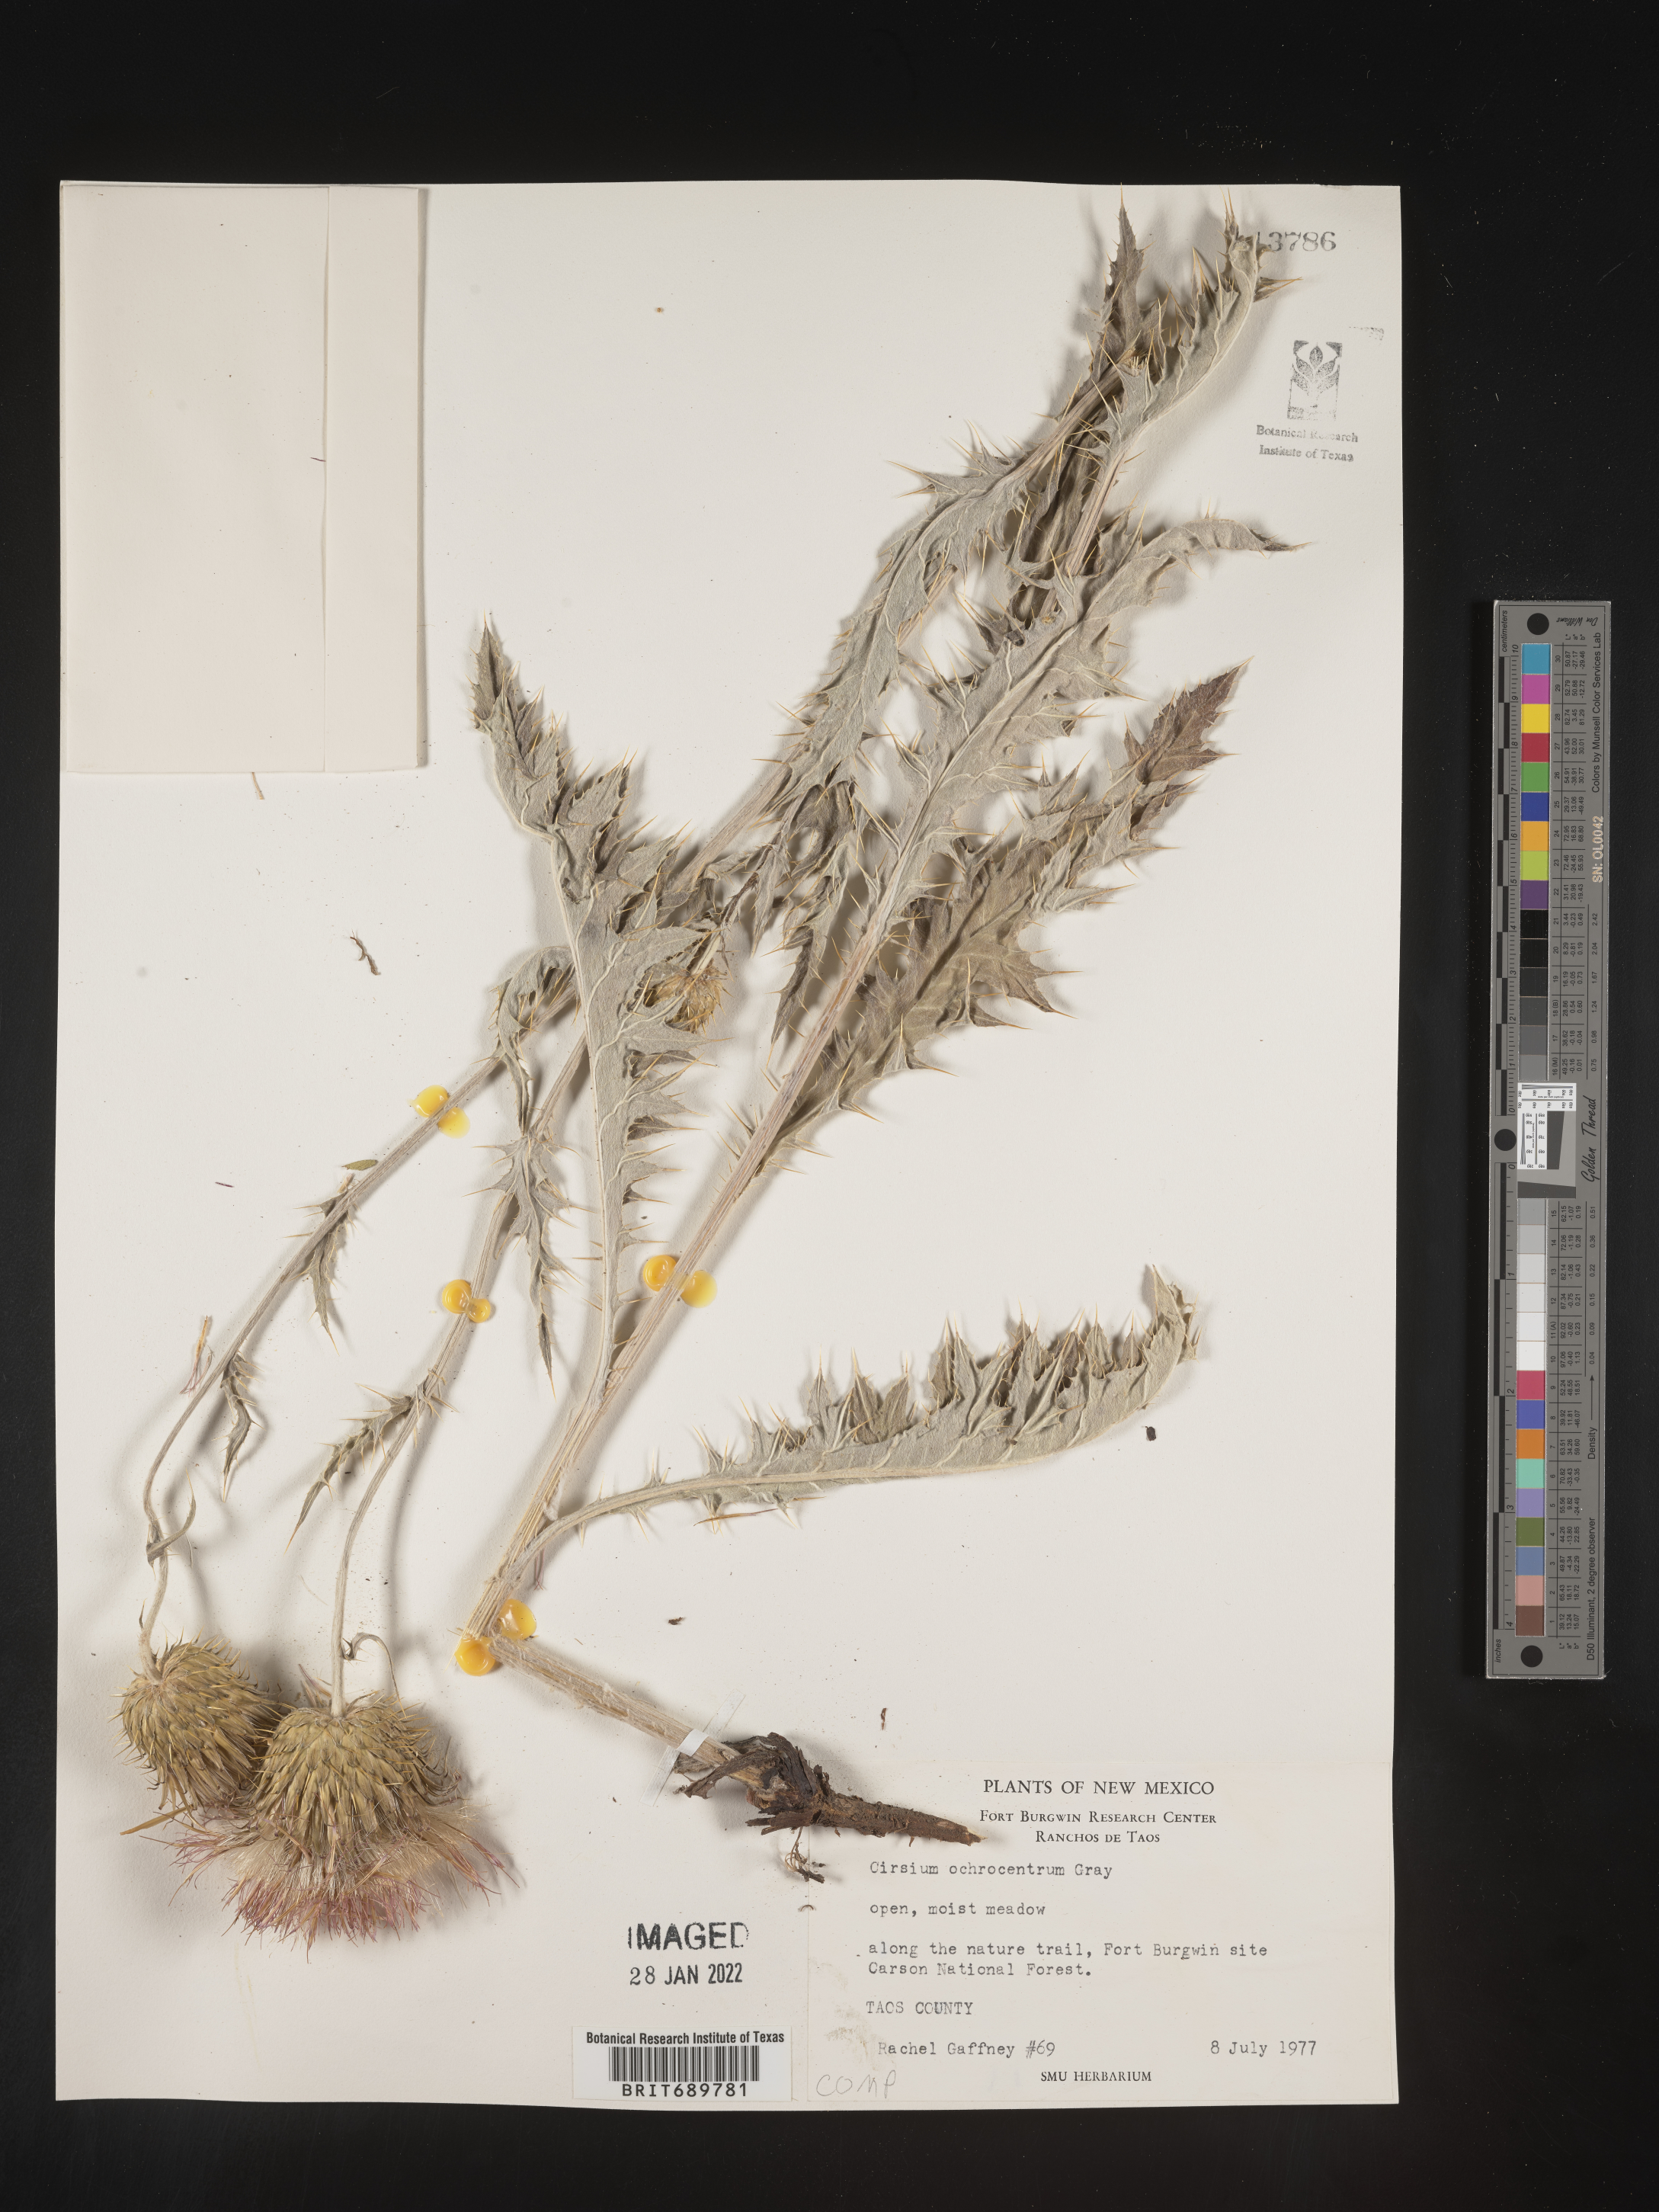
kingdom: Plantae
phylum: Tracheophyta
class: Magnoliopsida
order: Asterales
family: Asteraceae
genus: Cirsium
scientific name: Cirsium ochrocentrum
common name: Yellow-spine thistle
